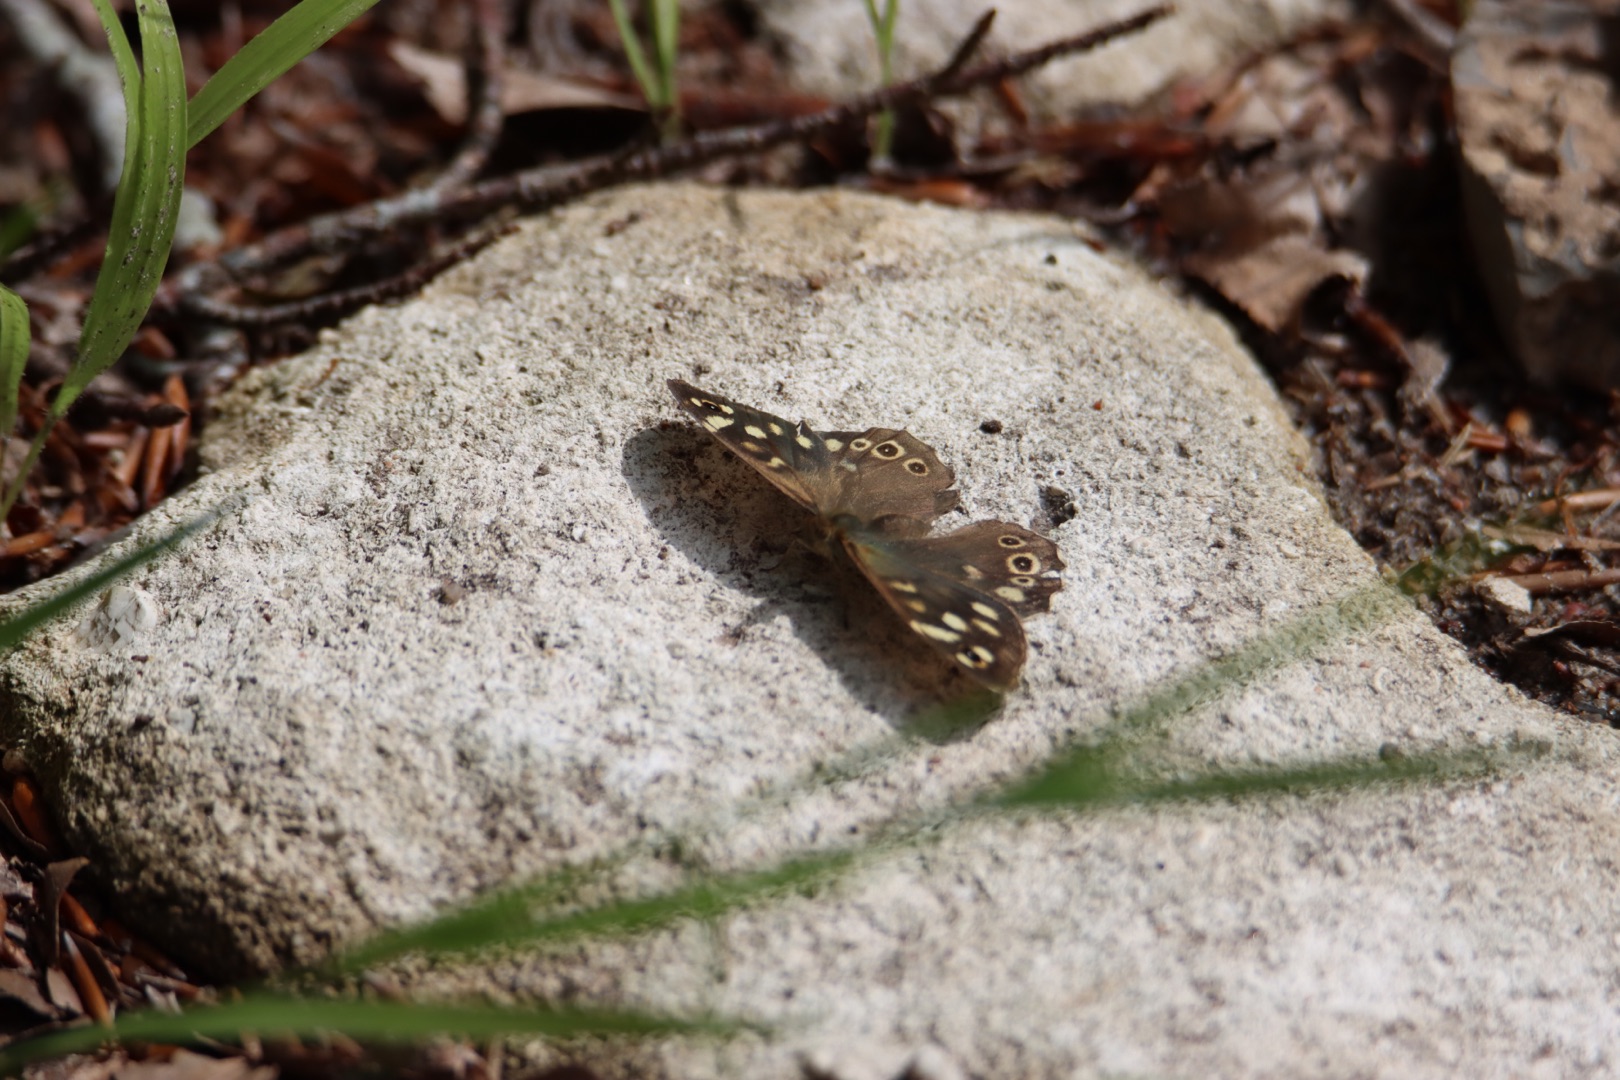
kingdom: Animalia
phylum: Arthropoda
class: Insecta
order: Lepidoptera
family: Nymphalidae
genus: Pararge
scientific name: Pararge aegeria
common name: Skovrandøje
